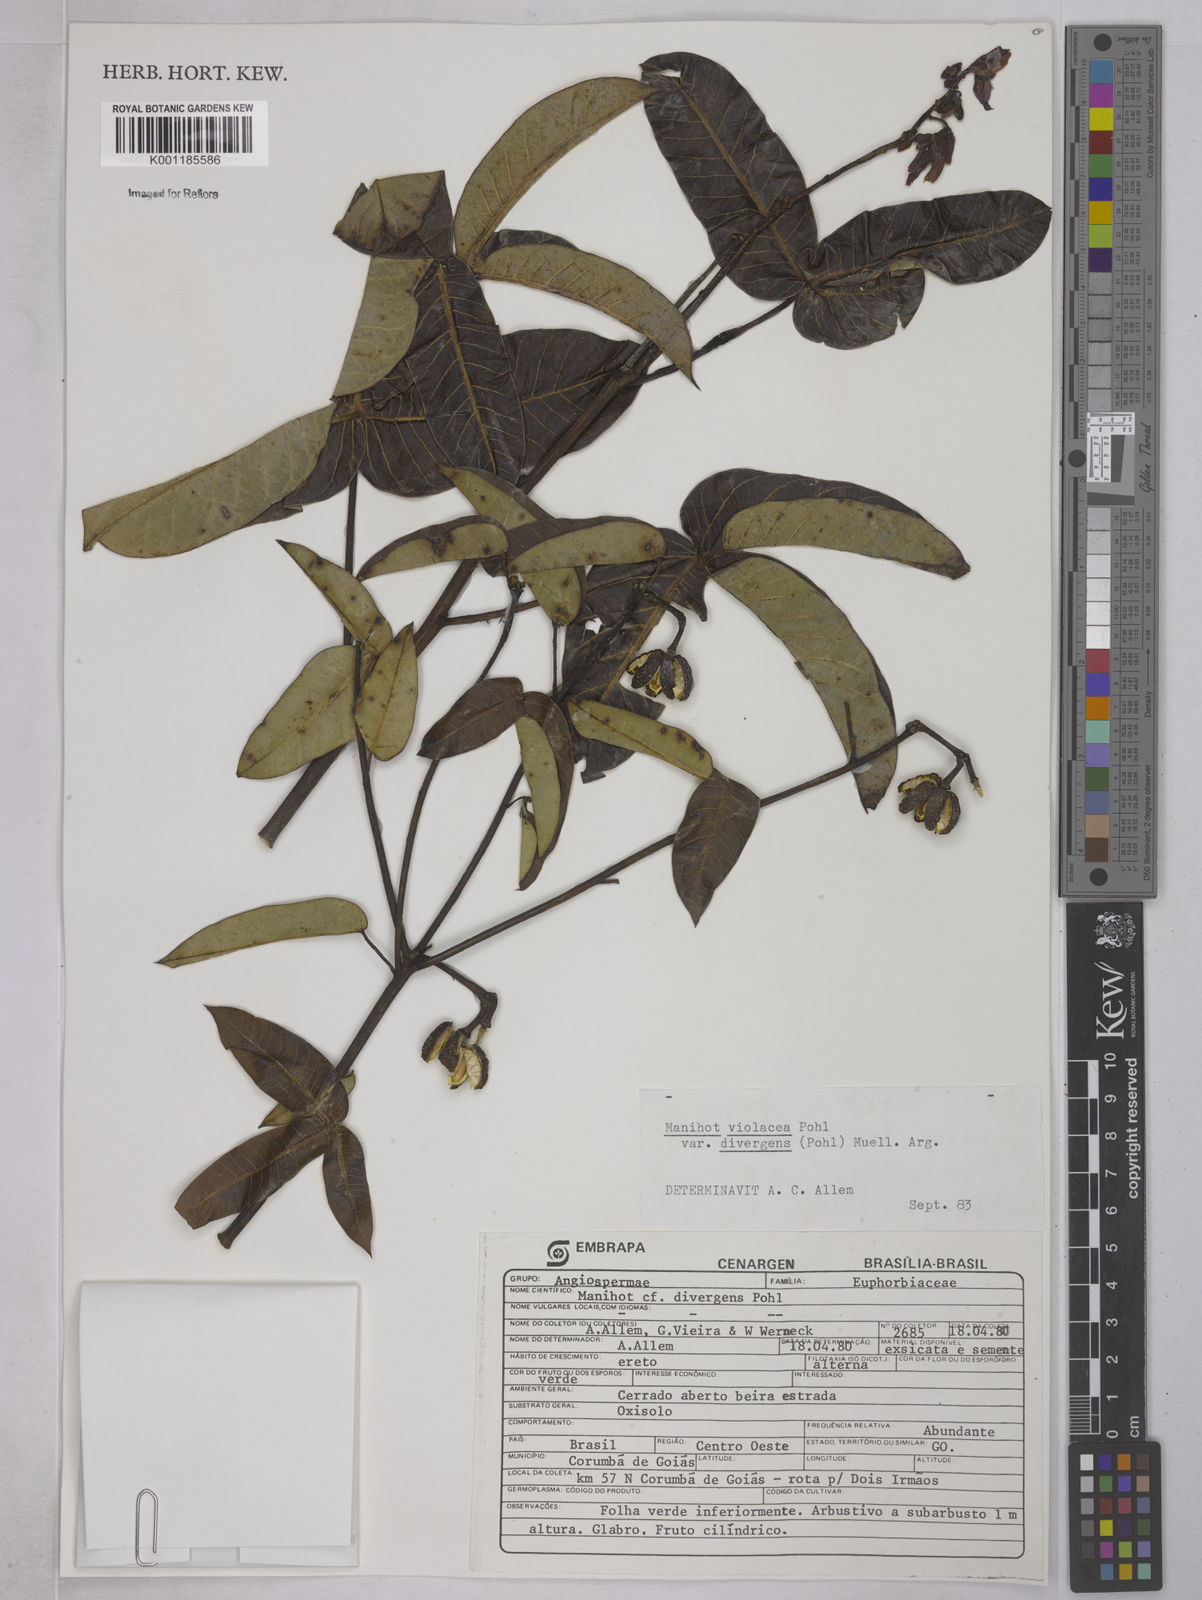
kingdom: Plantae
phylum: Tracheophyta
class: Magnoliopsida
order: Malpighiales
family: Euphorbiaceae
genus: Manihot
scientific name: Manihot divergens
